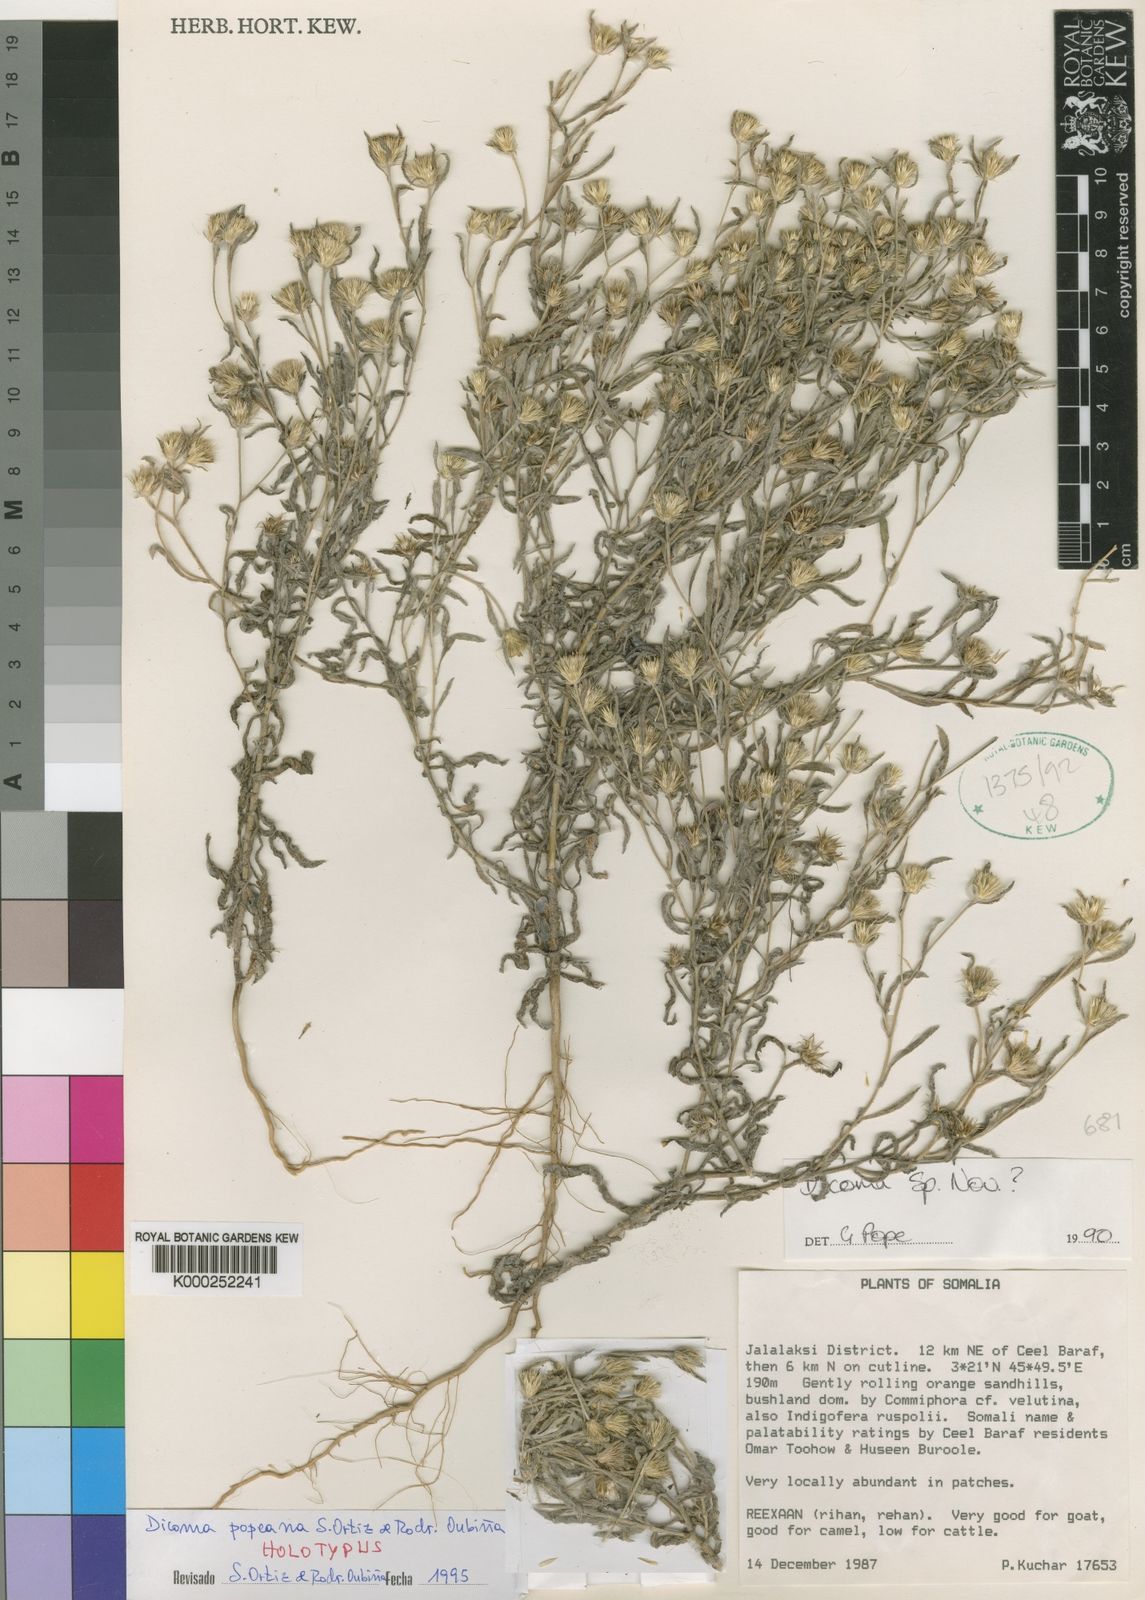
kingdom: Plantae
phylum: Tracheophyta
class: Magnoliopsida
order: Asterales
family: Asteraceae
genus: Dicoma
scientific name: Dicoma
